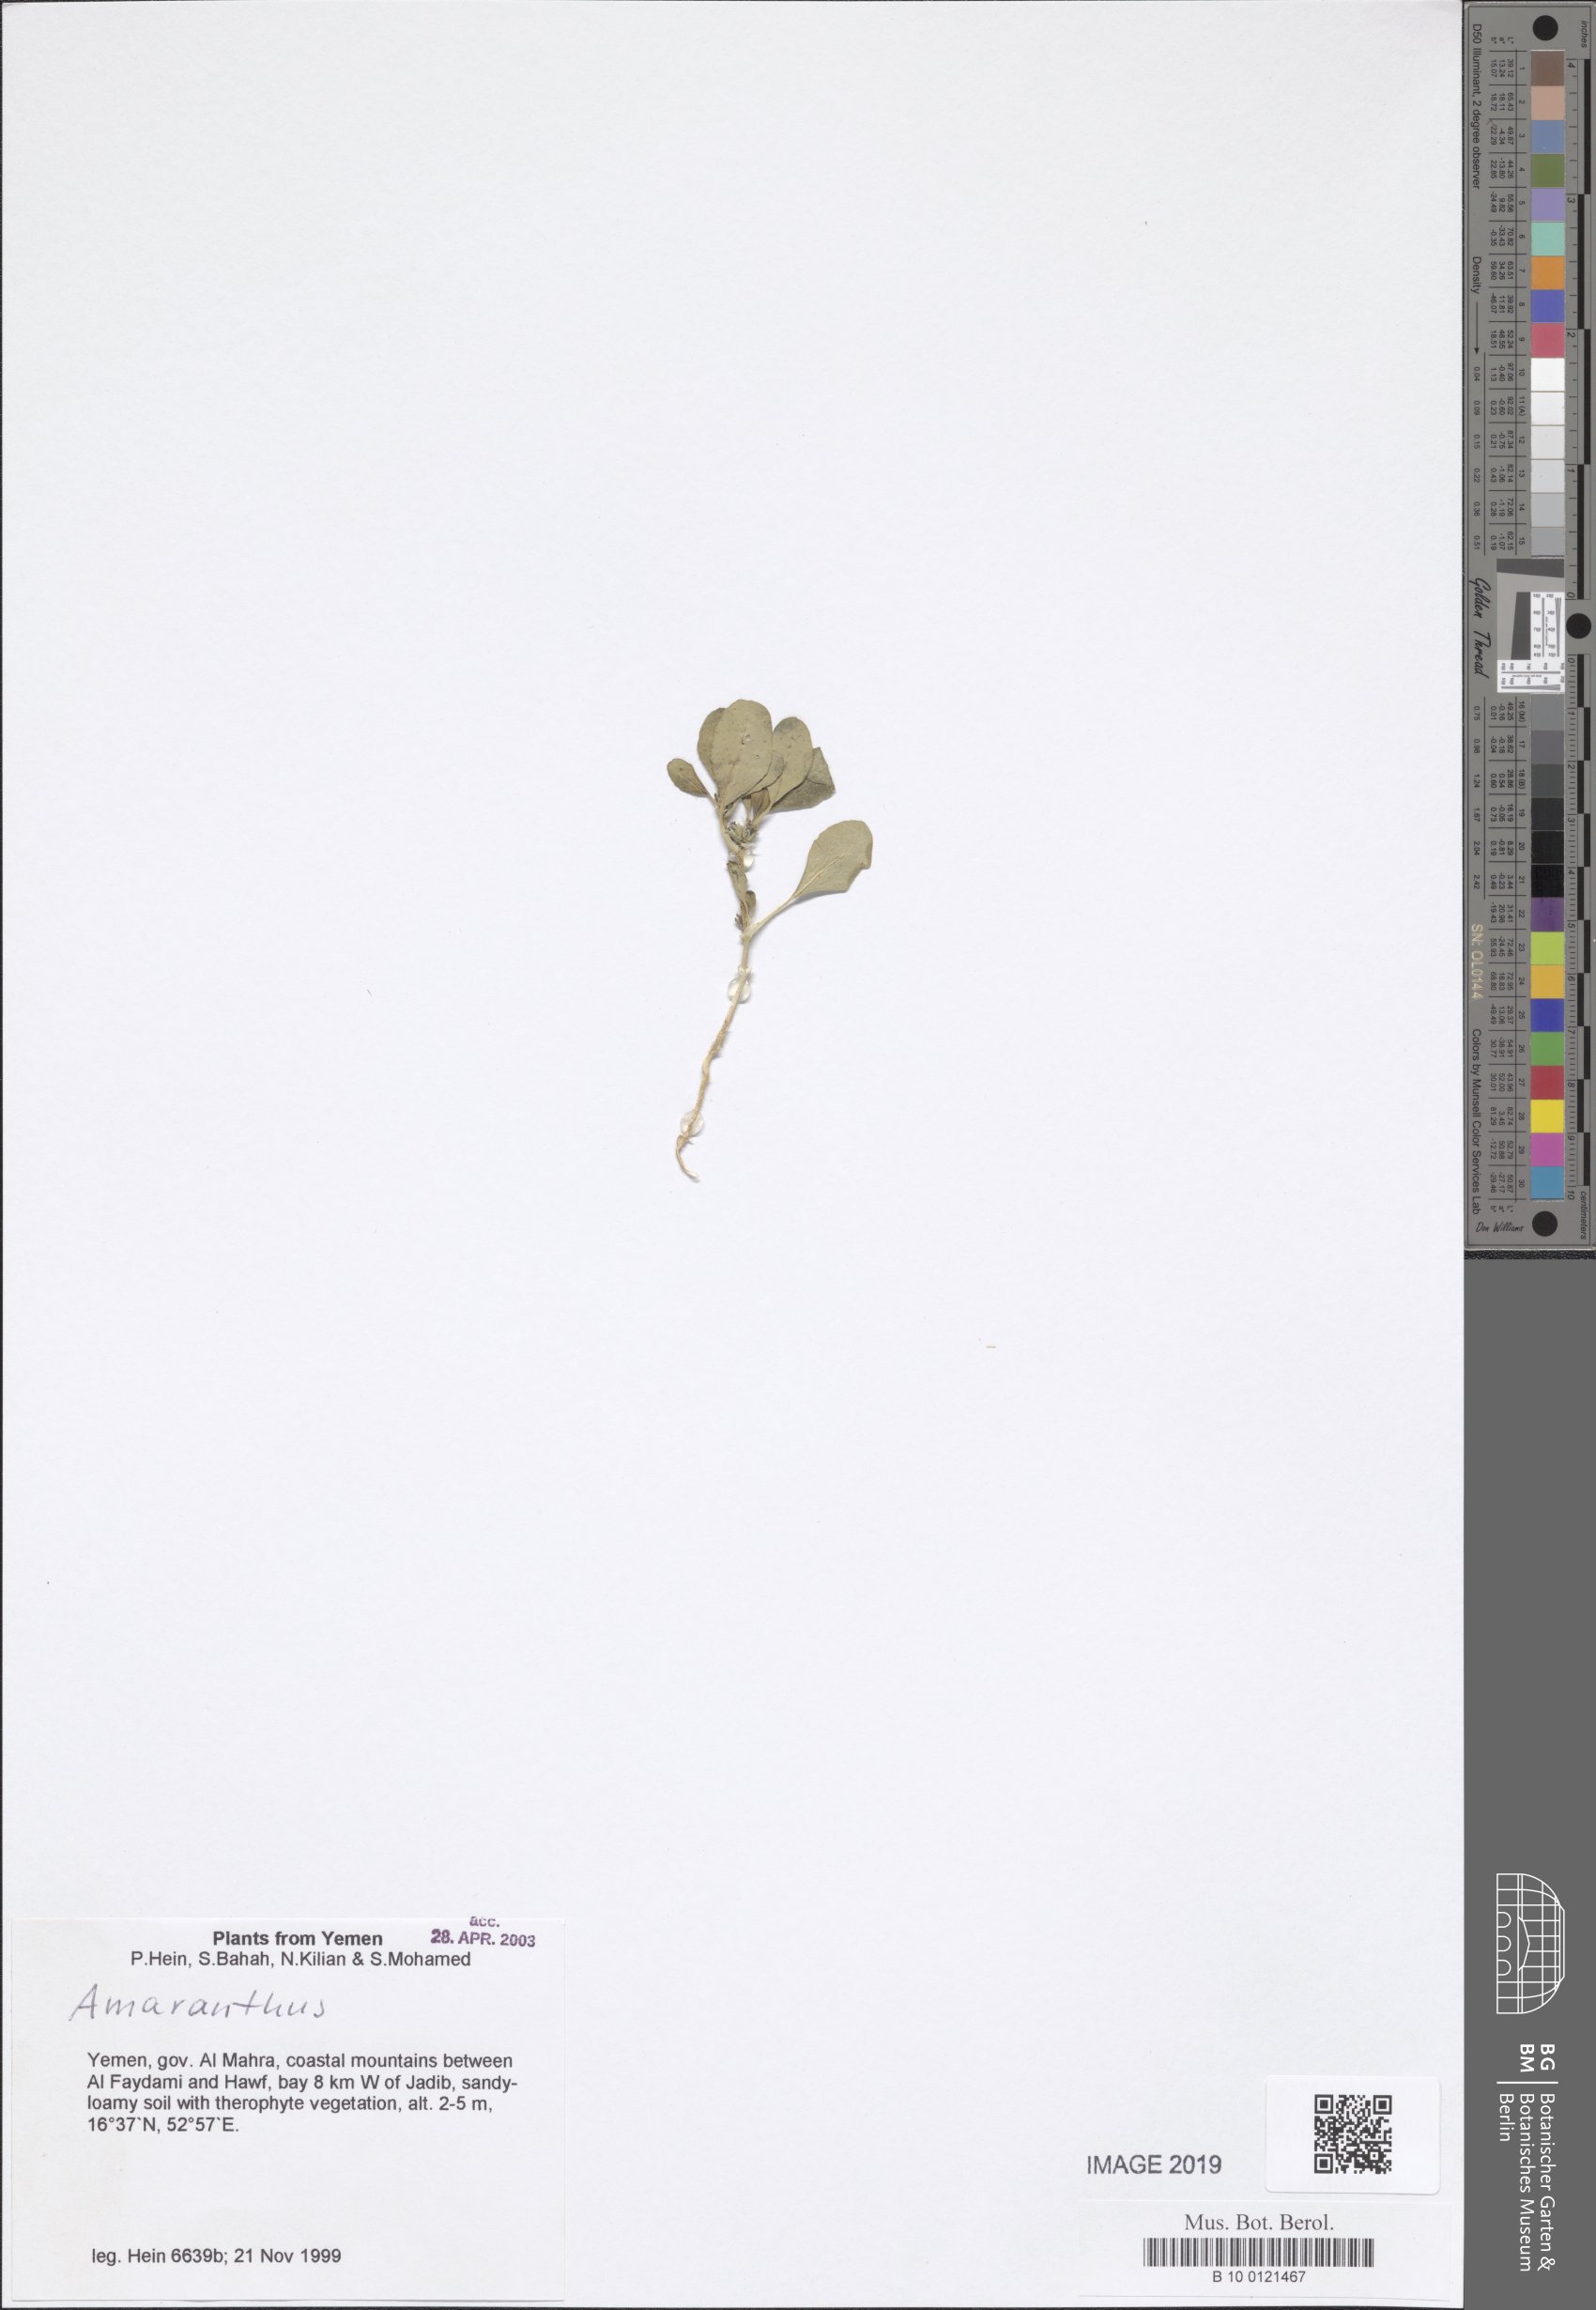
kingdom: Plantae
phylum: Tracheophyta
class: Magnoliopsida
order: Caryophyllales
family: Amaranthaceae
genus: Amaranthus
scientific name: Amaranthus
